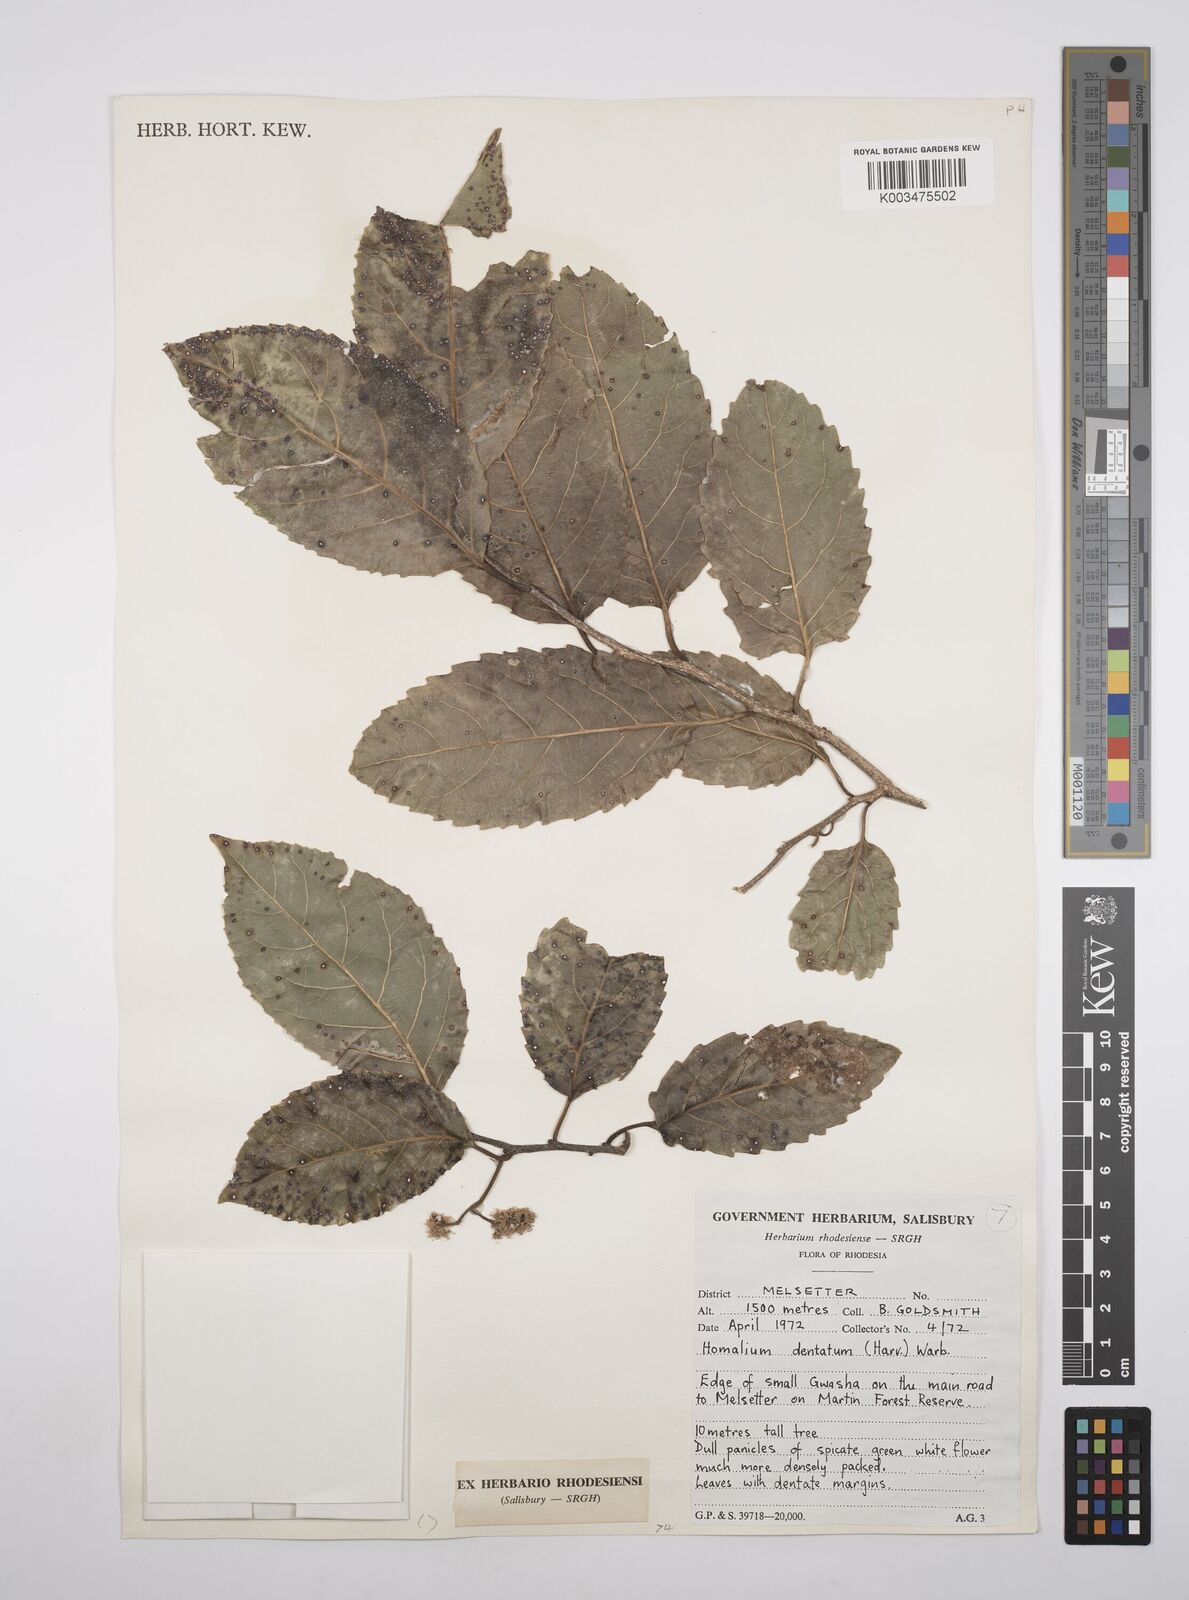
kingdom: Plantae
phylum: Tracheophyta
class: Magnoliopsida
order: Malpighiales
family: Salicaceae
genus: Homalium
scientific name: Homalium dentatum
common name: Brown ironwood
